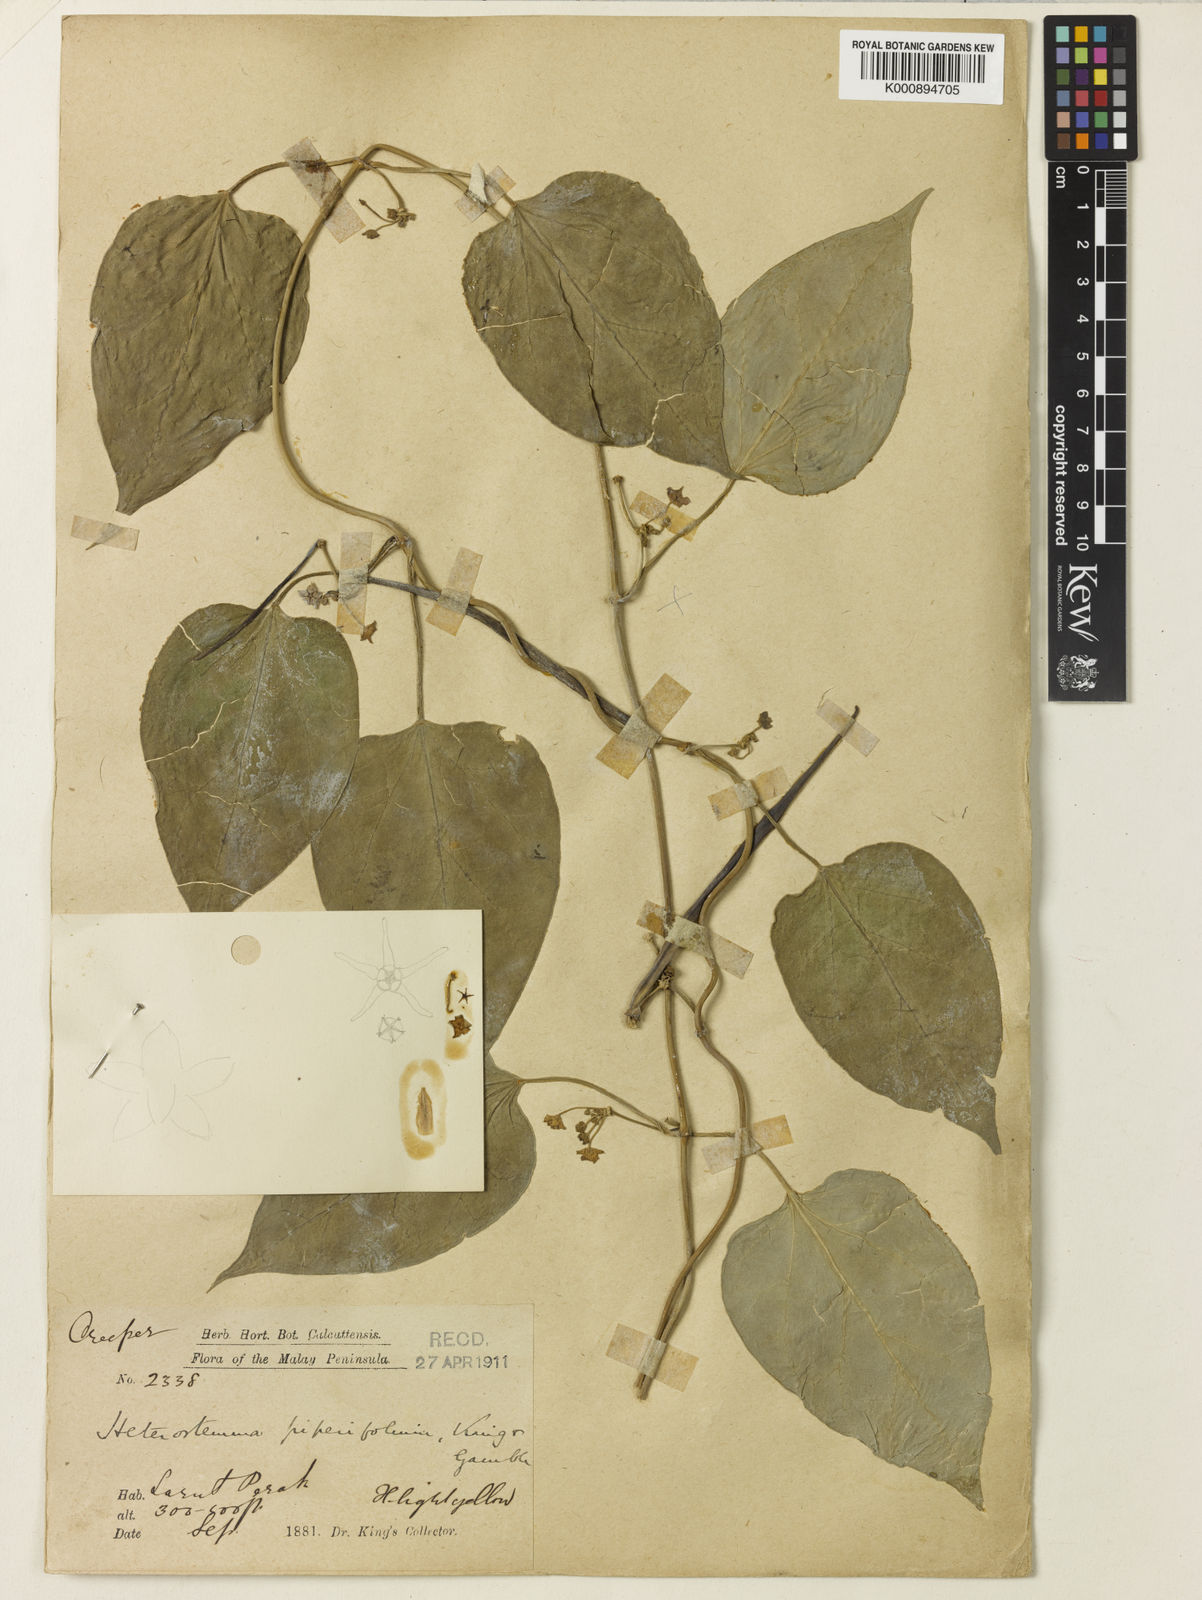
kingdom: Plantae
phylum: Tracheophyta
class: Magnoliopsida
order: Gentianales
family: Apocynaceae
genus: Heterostemma
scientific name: Heterostemma piperifolium
